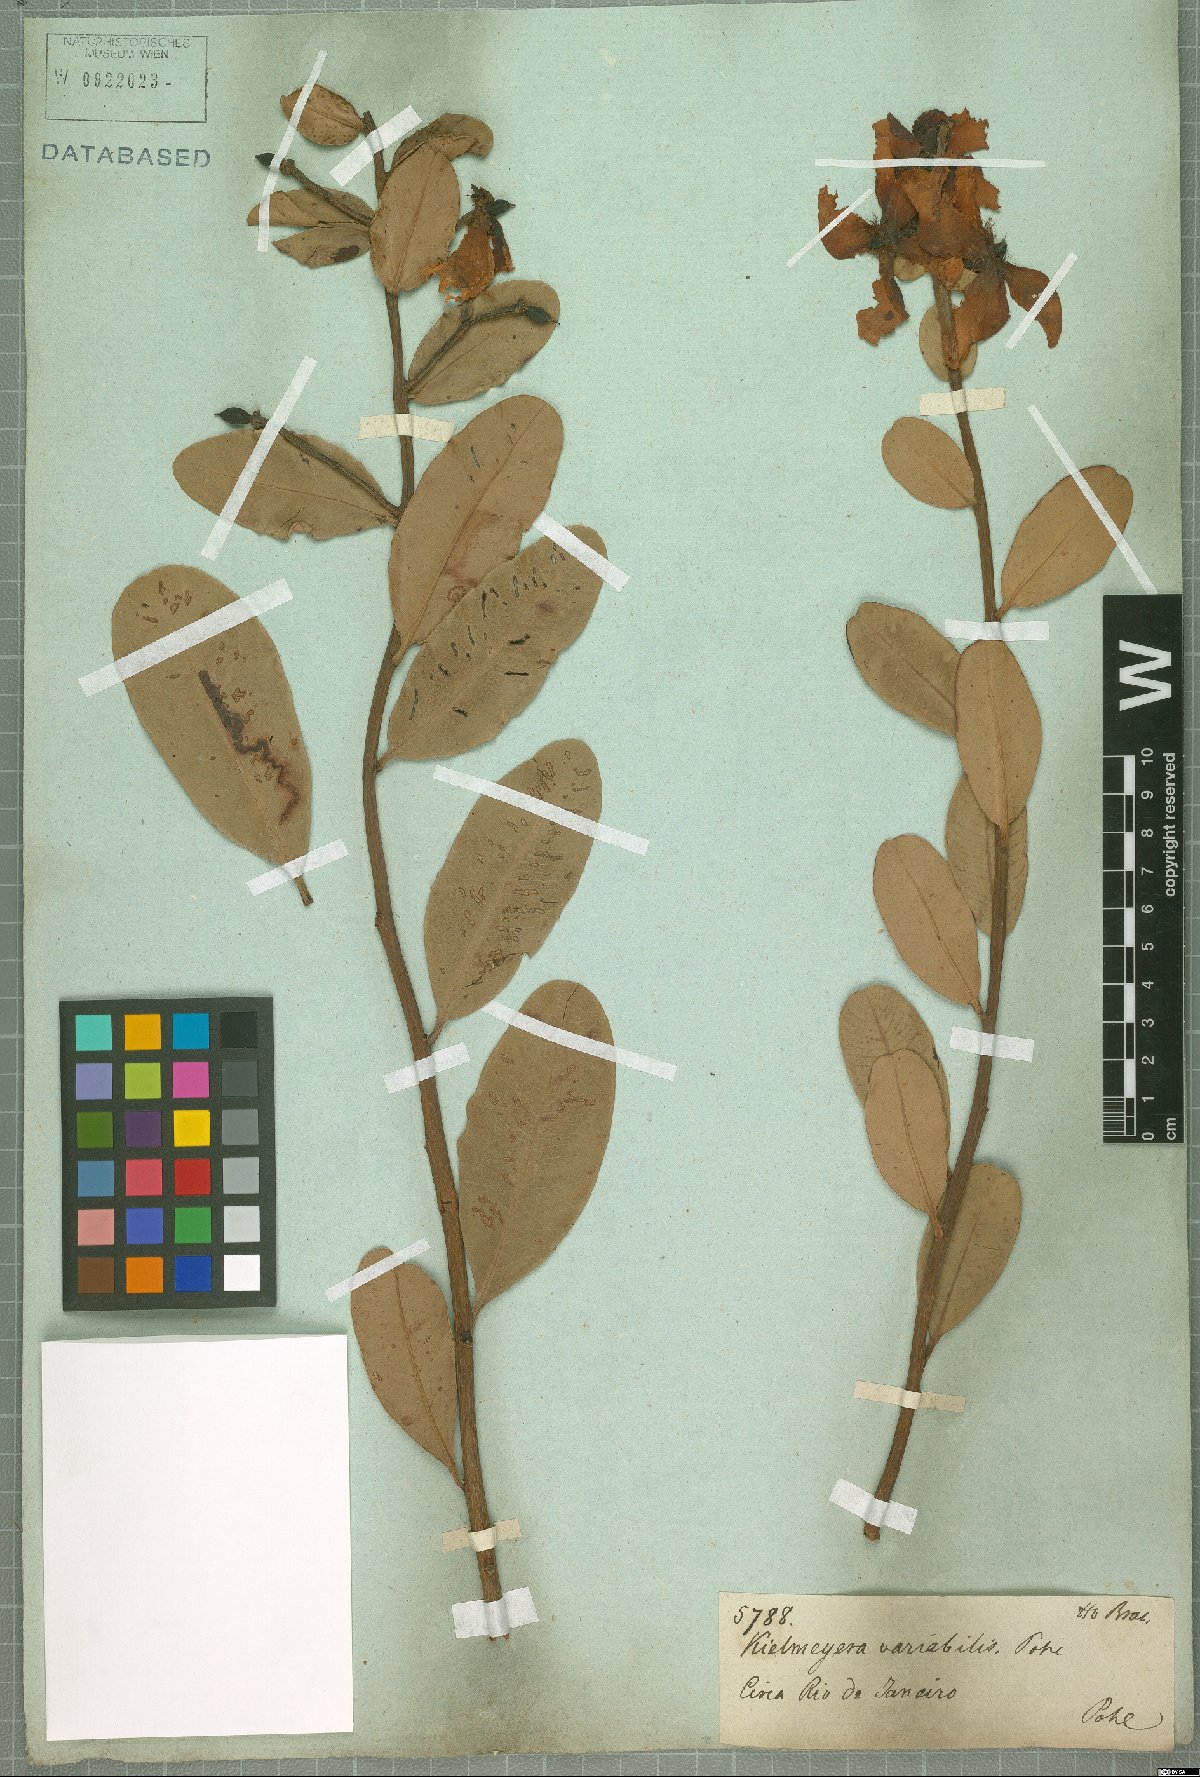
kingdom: Plantae
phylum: Tracheophyta
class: Magnoliopsida
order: Malpighiales
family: Calophyllaceae
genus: Kielmeyera
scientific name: Kielmeyera variabilis
